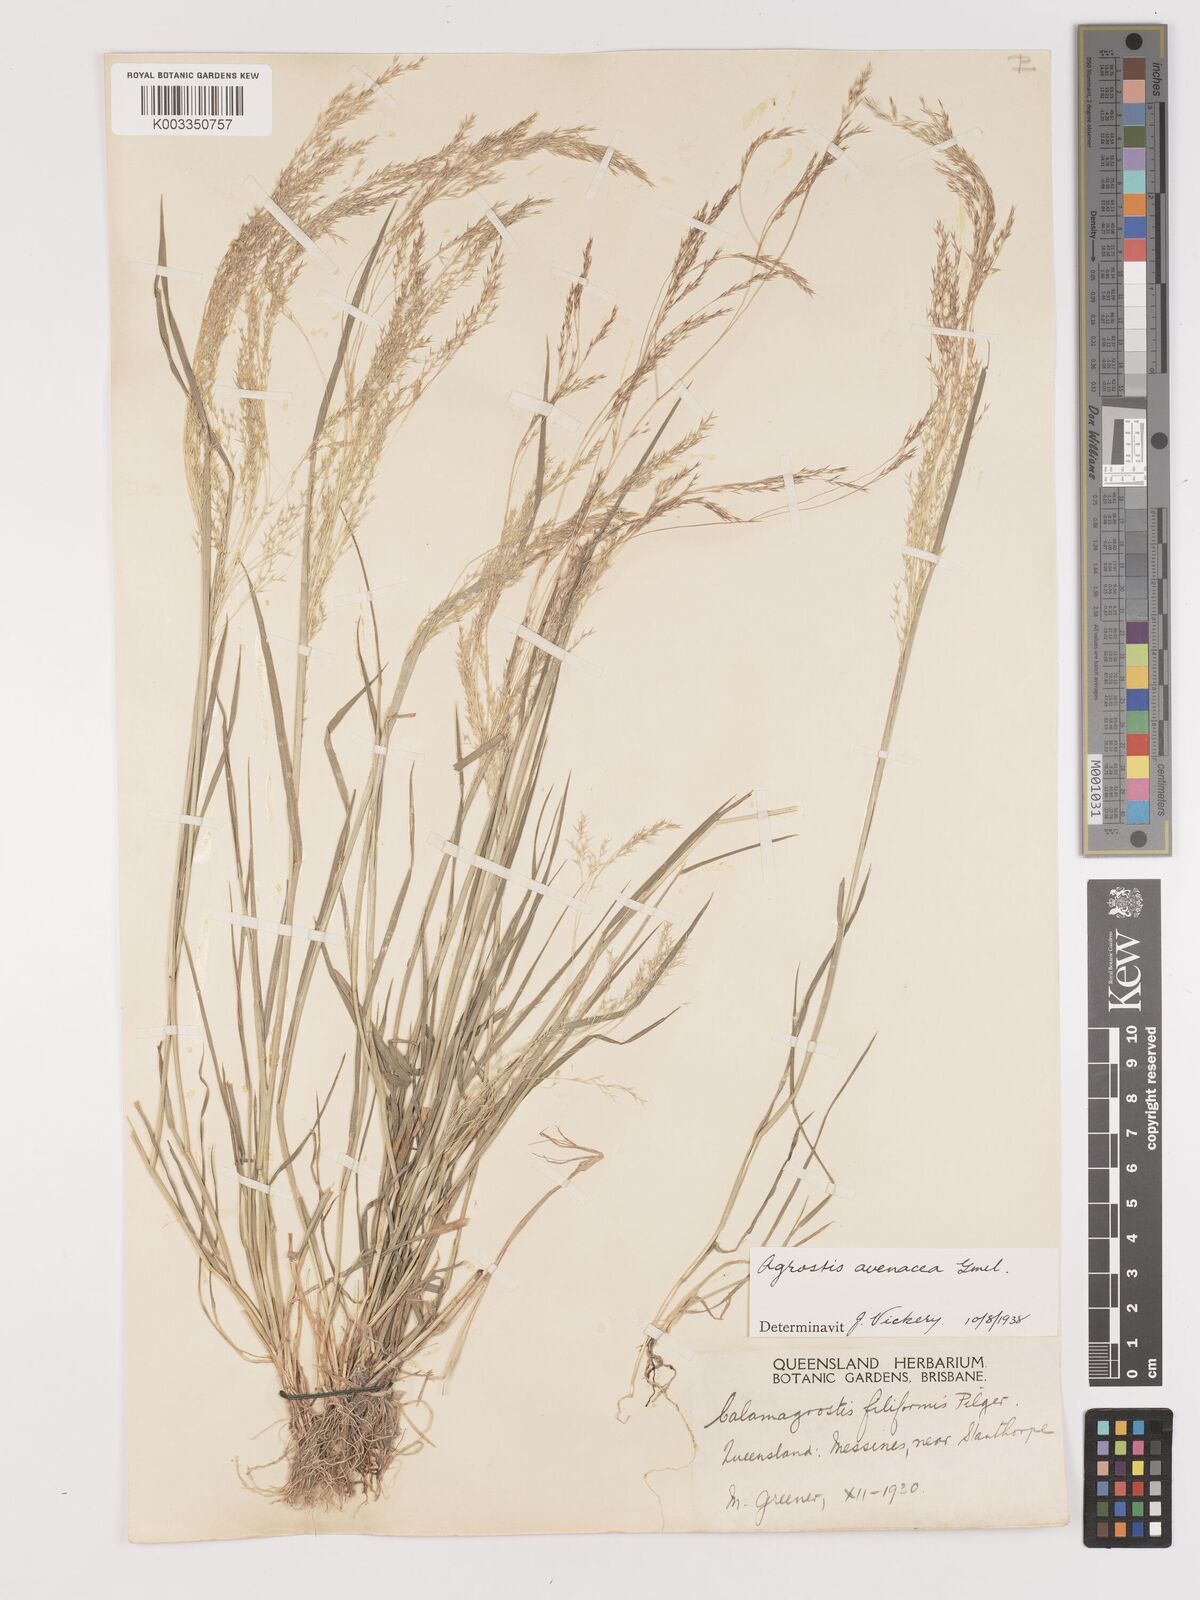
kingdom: Plantae
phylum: Tracheophyta
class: Liliopsida
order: Poales
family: Poaceae
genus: Lachnagrostis
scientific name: Lachnagrostis filiformis
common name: Bentgrass
